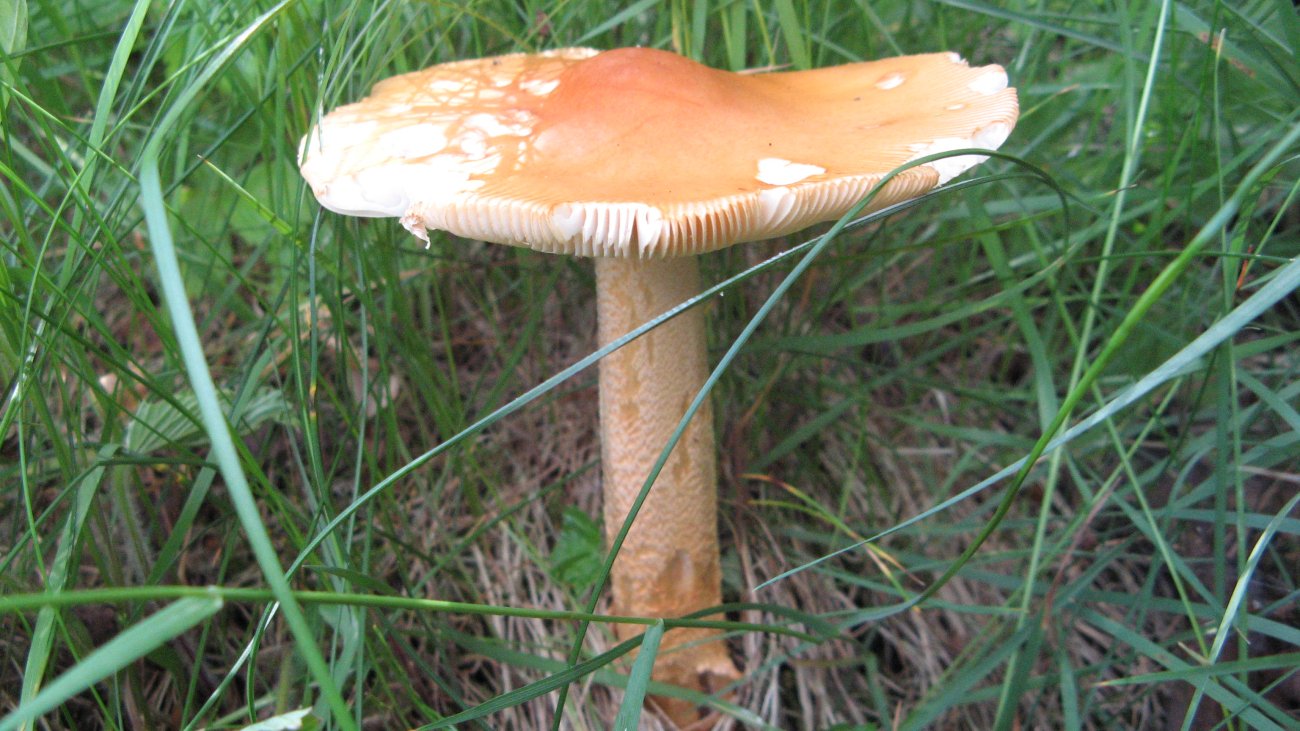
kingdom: Fungi
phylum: Basidiomycota
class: Agaricomycetes
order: Agaricales
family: Amanitaceae
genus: Amanita
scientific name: Amanita crocea
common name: gylden kam-fluesvamp
